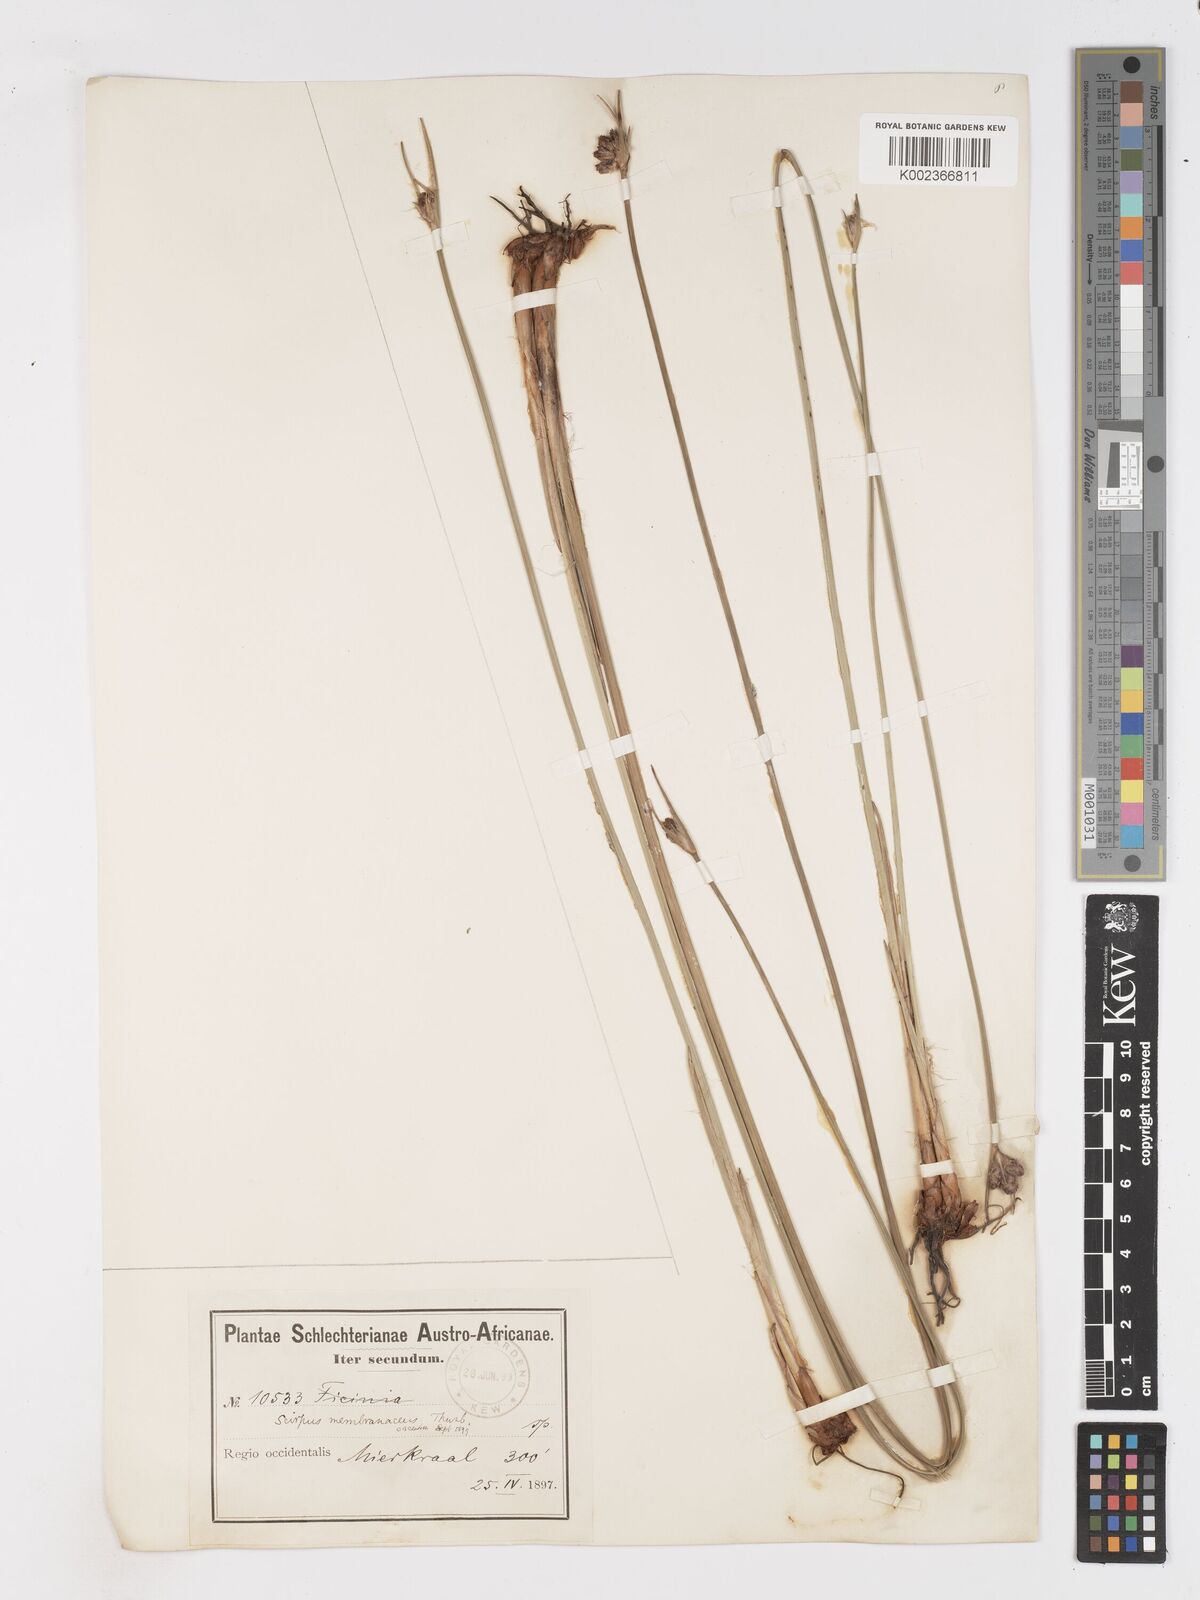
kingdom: Plantae
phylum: Tracheophyta
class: Liliopsida
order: Poales
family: Cyperaceae
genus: Hellmuthia
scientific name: Hellmuthia membranacea
